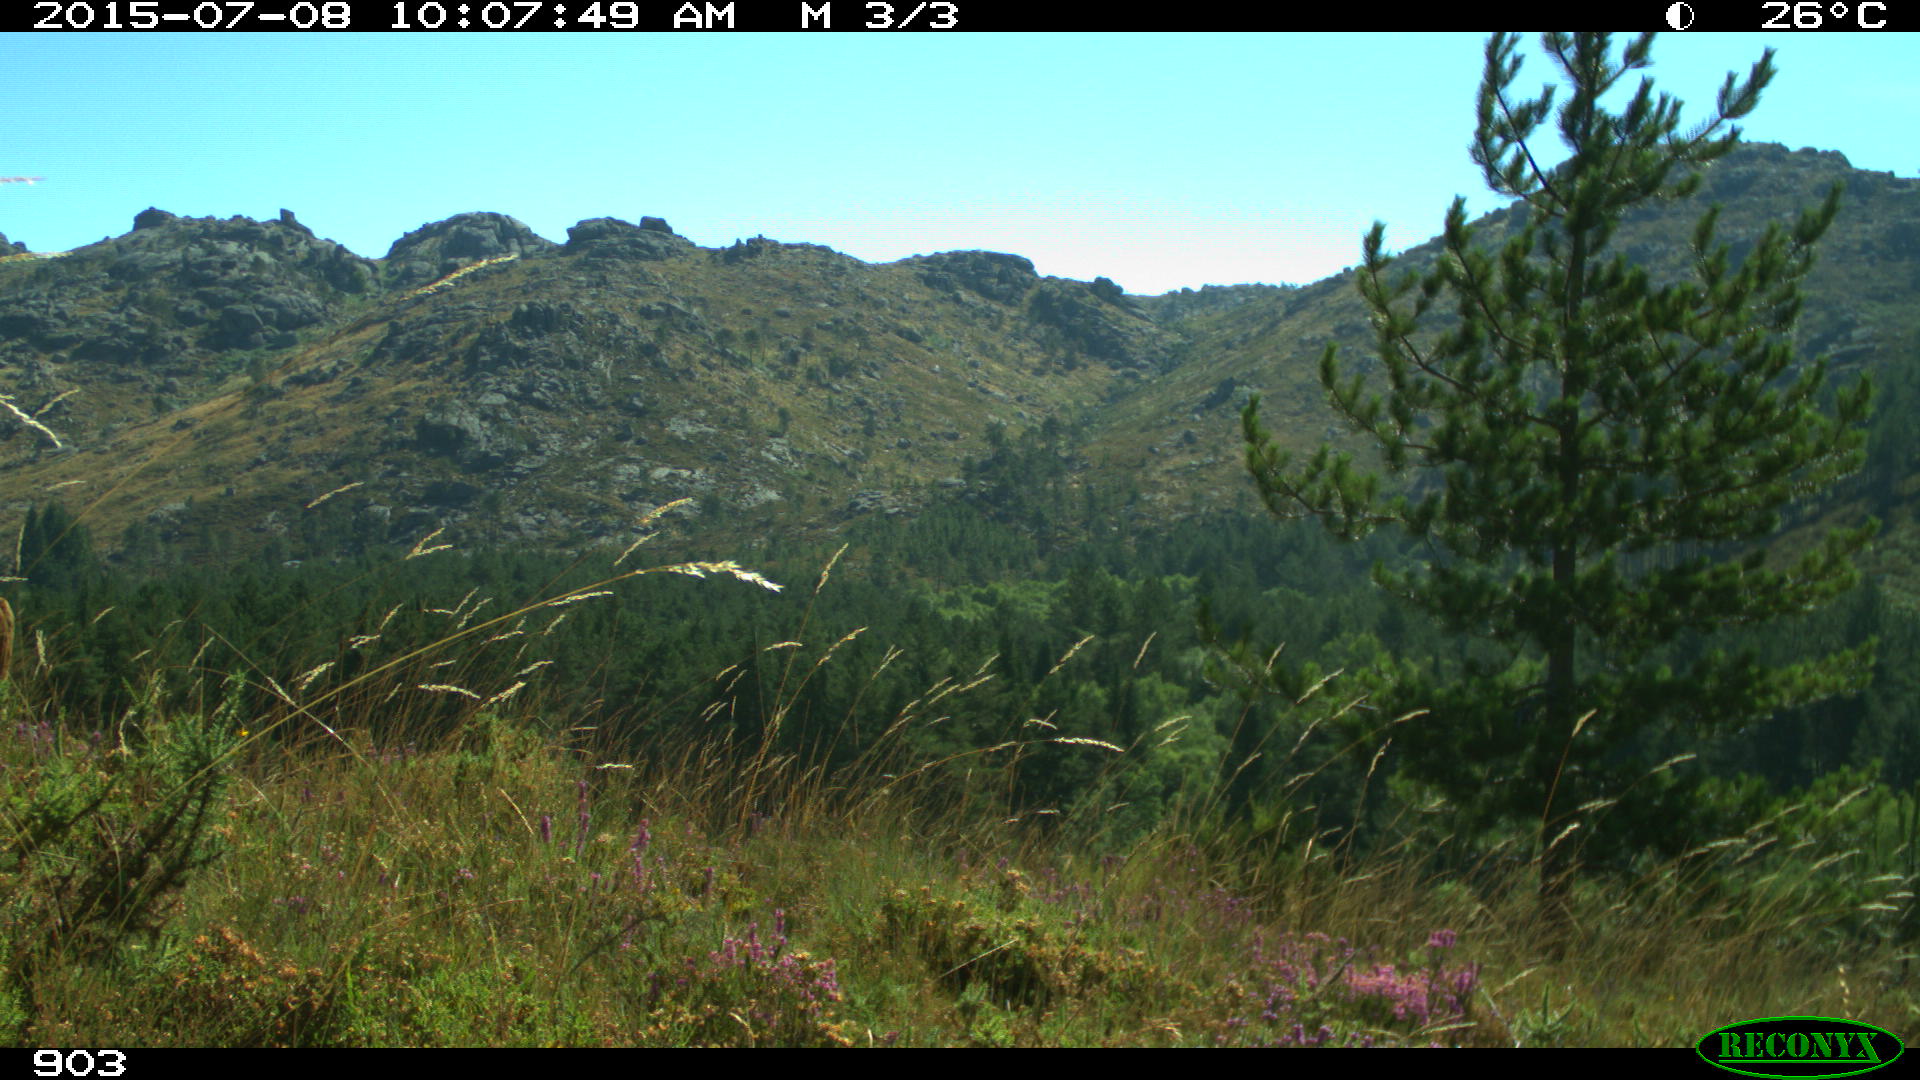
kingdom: Animalia
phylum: Chordata
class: Mammalia
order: Artiodactyla
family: Bovidae
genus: Bos
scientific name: Bos taurus
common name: Domesticated cattle
